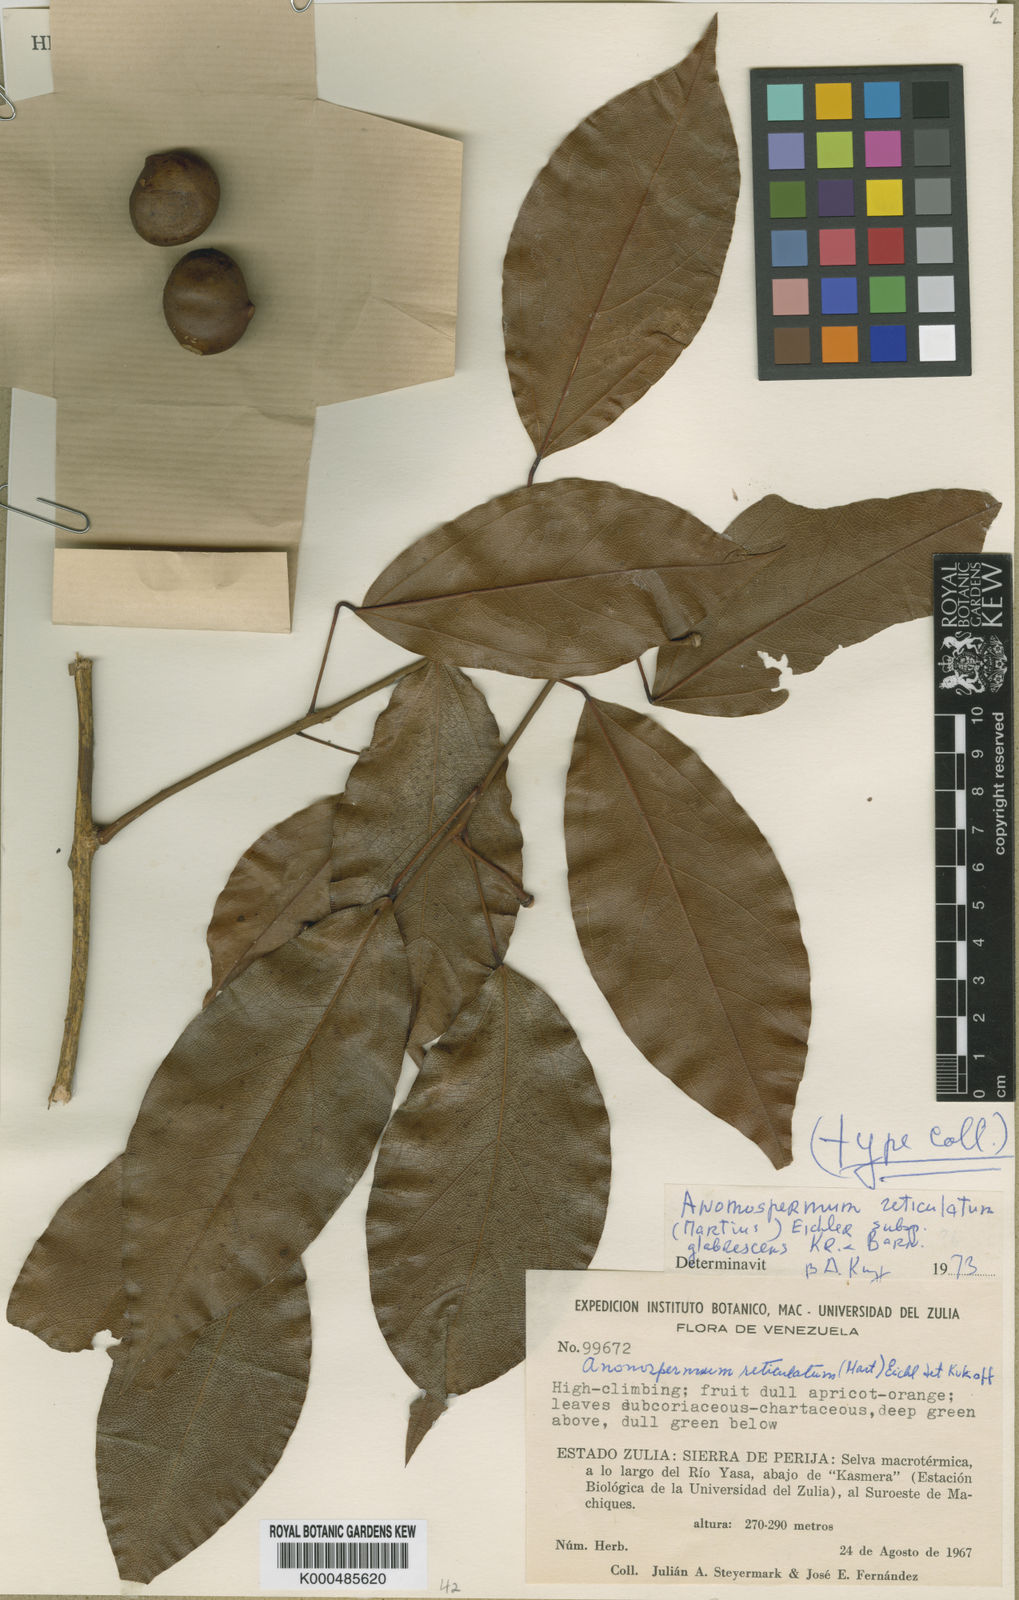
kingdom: Plantae
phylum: Tracheophyta
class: Magnoliopsida
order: Ranunculales
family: Menispermaceae
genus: Anomospermum
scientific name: Anomospermum reticulatum
